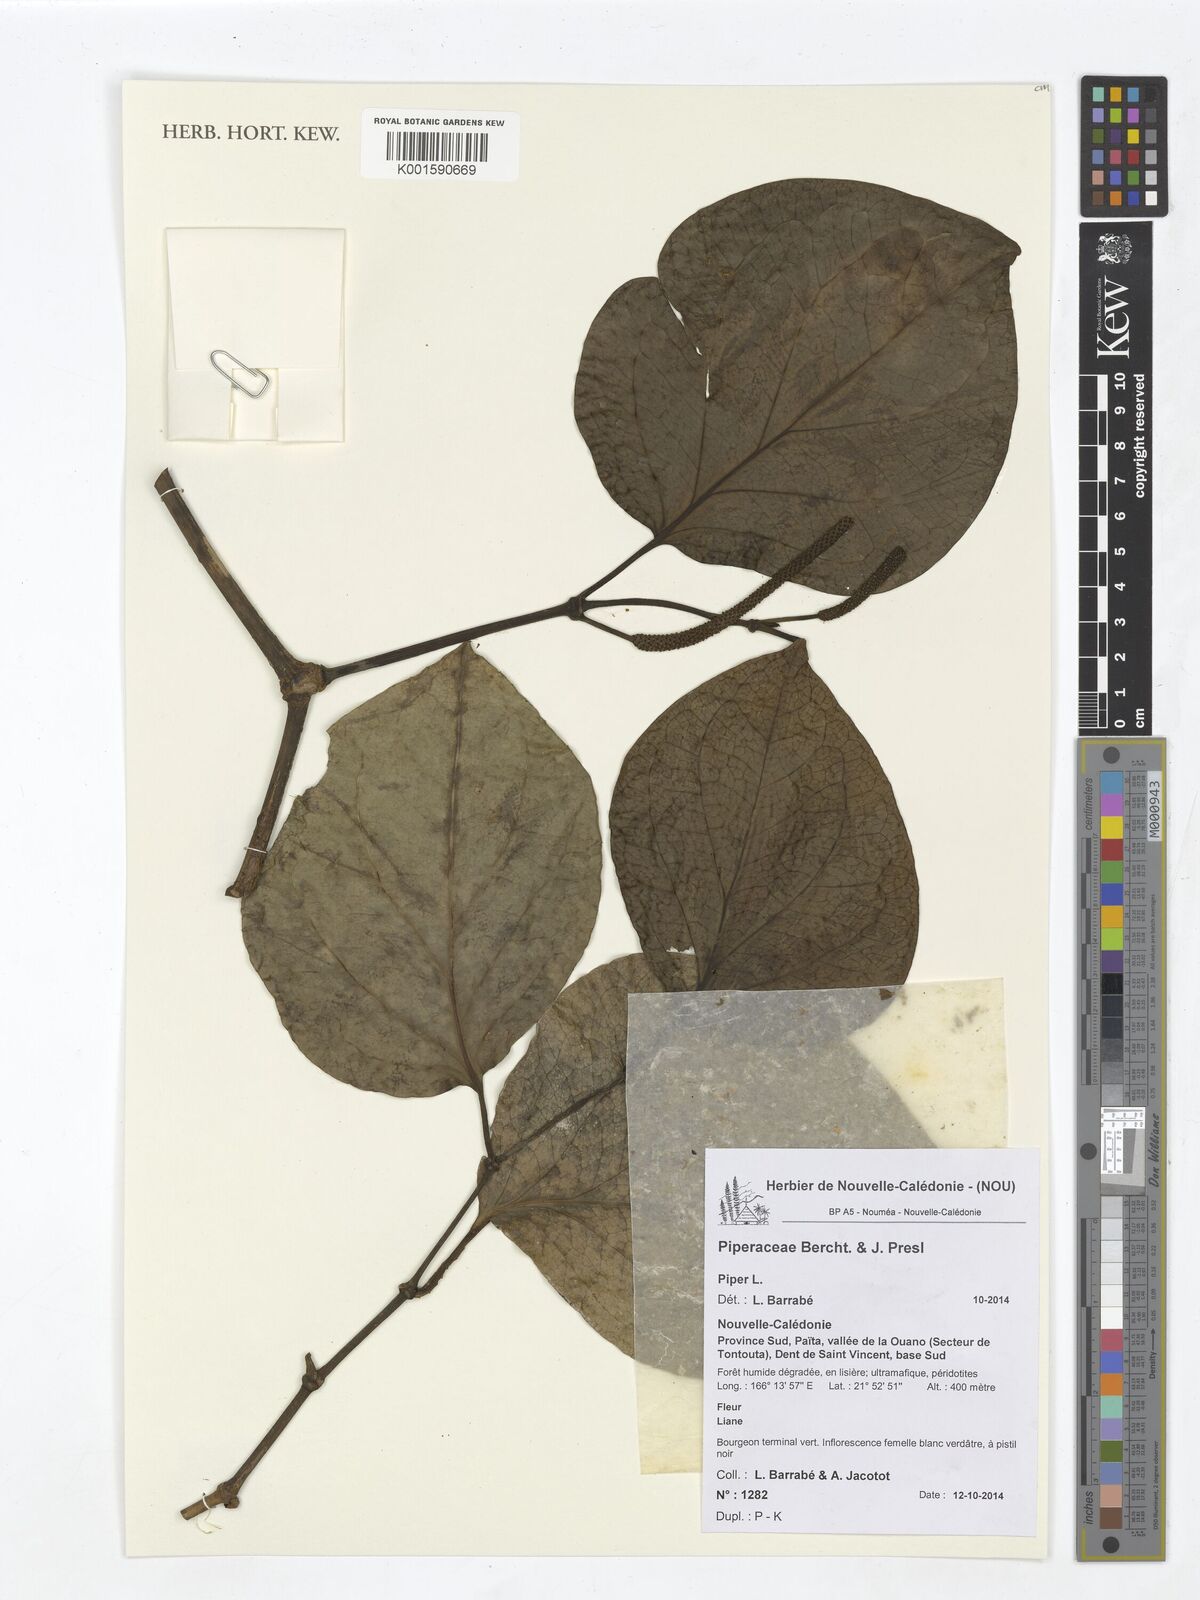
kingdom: Plantae
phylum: Tracheophyta
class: Magnoliopsida
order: Piperales
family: Piperaceae
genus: Piper
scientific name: Piper
